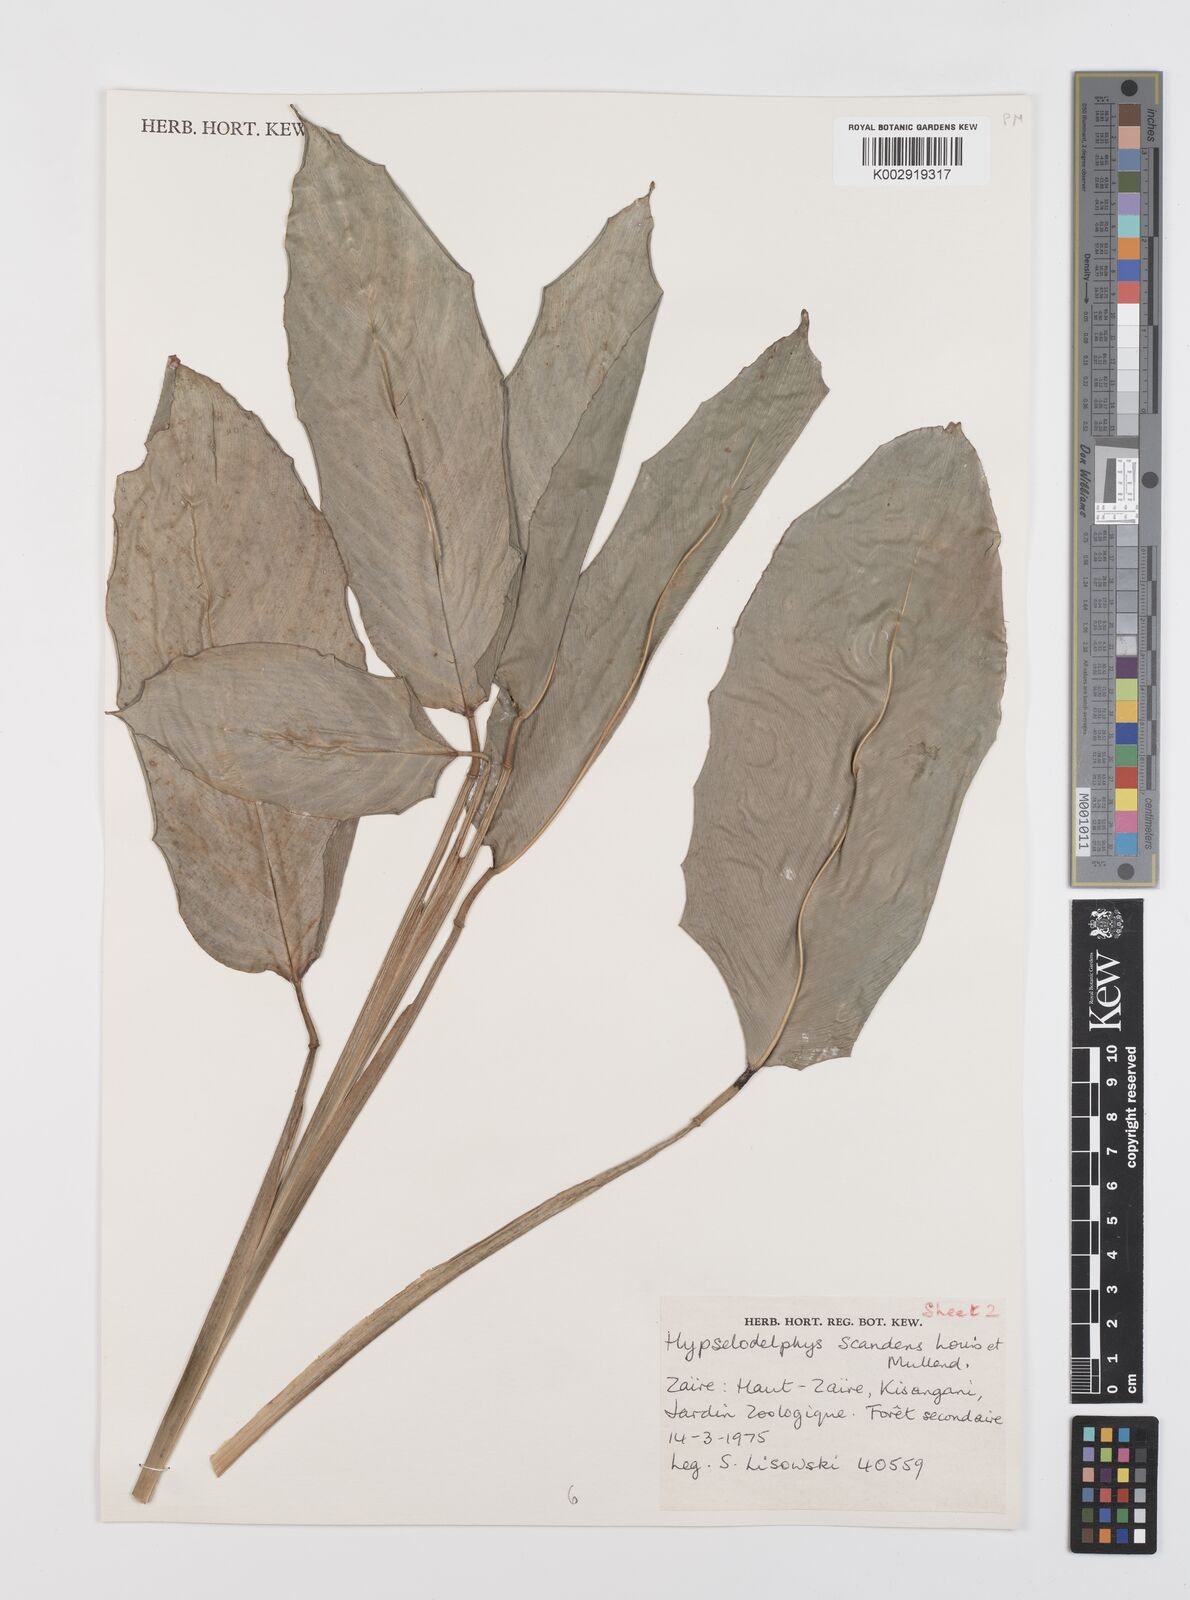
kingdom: Plantae
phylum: Tracheophyta
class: Liliopsida
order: Zingiberales
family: Marantaceae
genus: Hypselodelphys
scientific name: Hypselodelphys scandens
